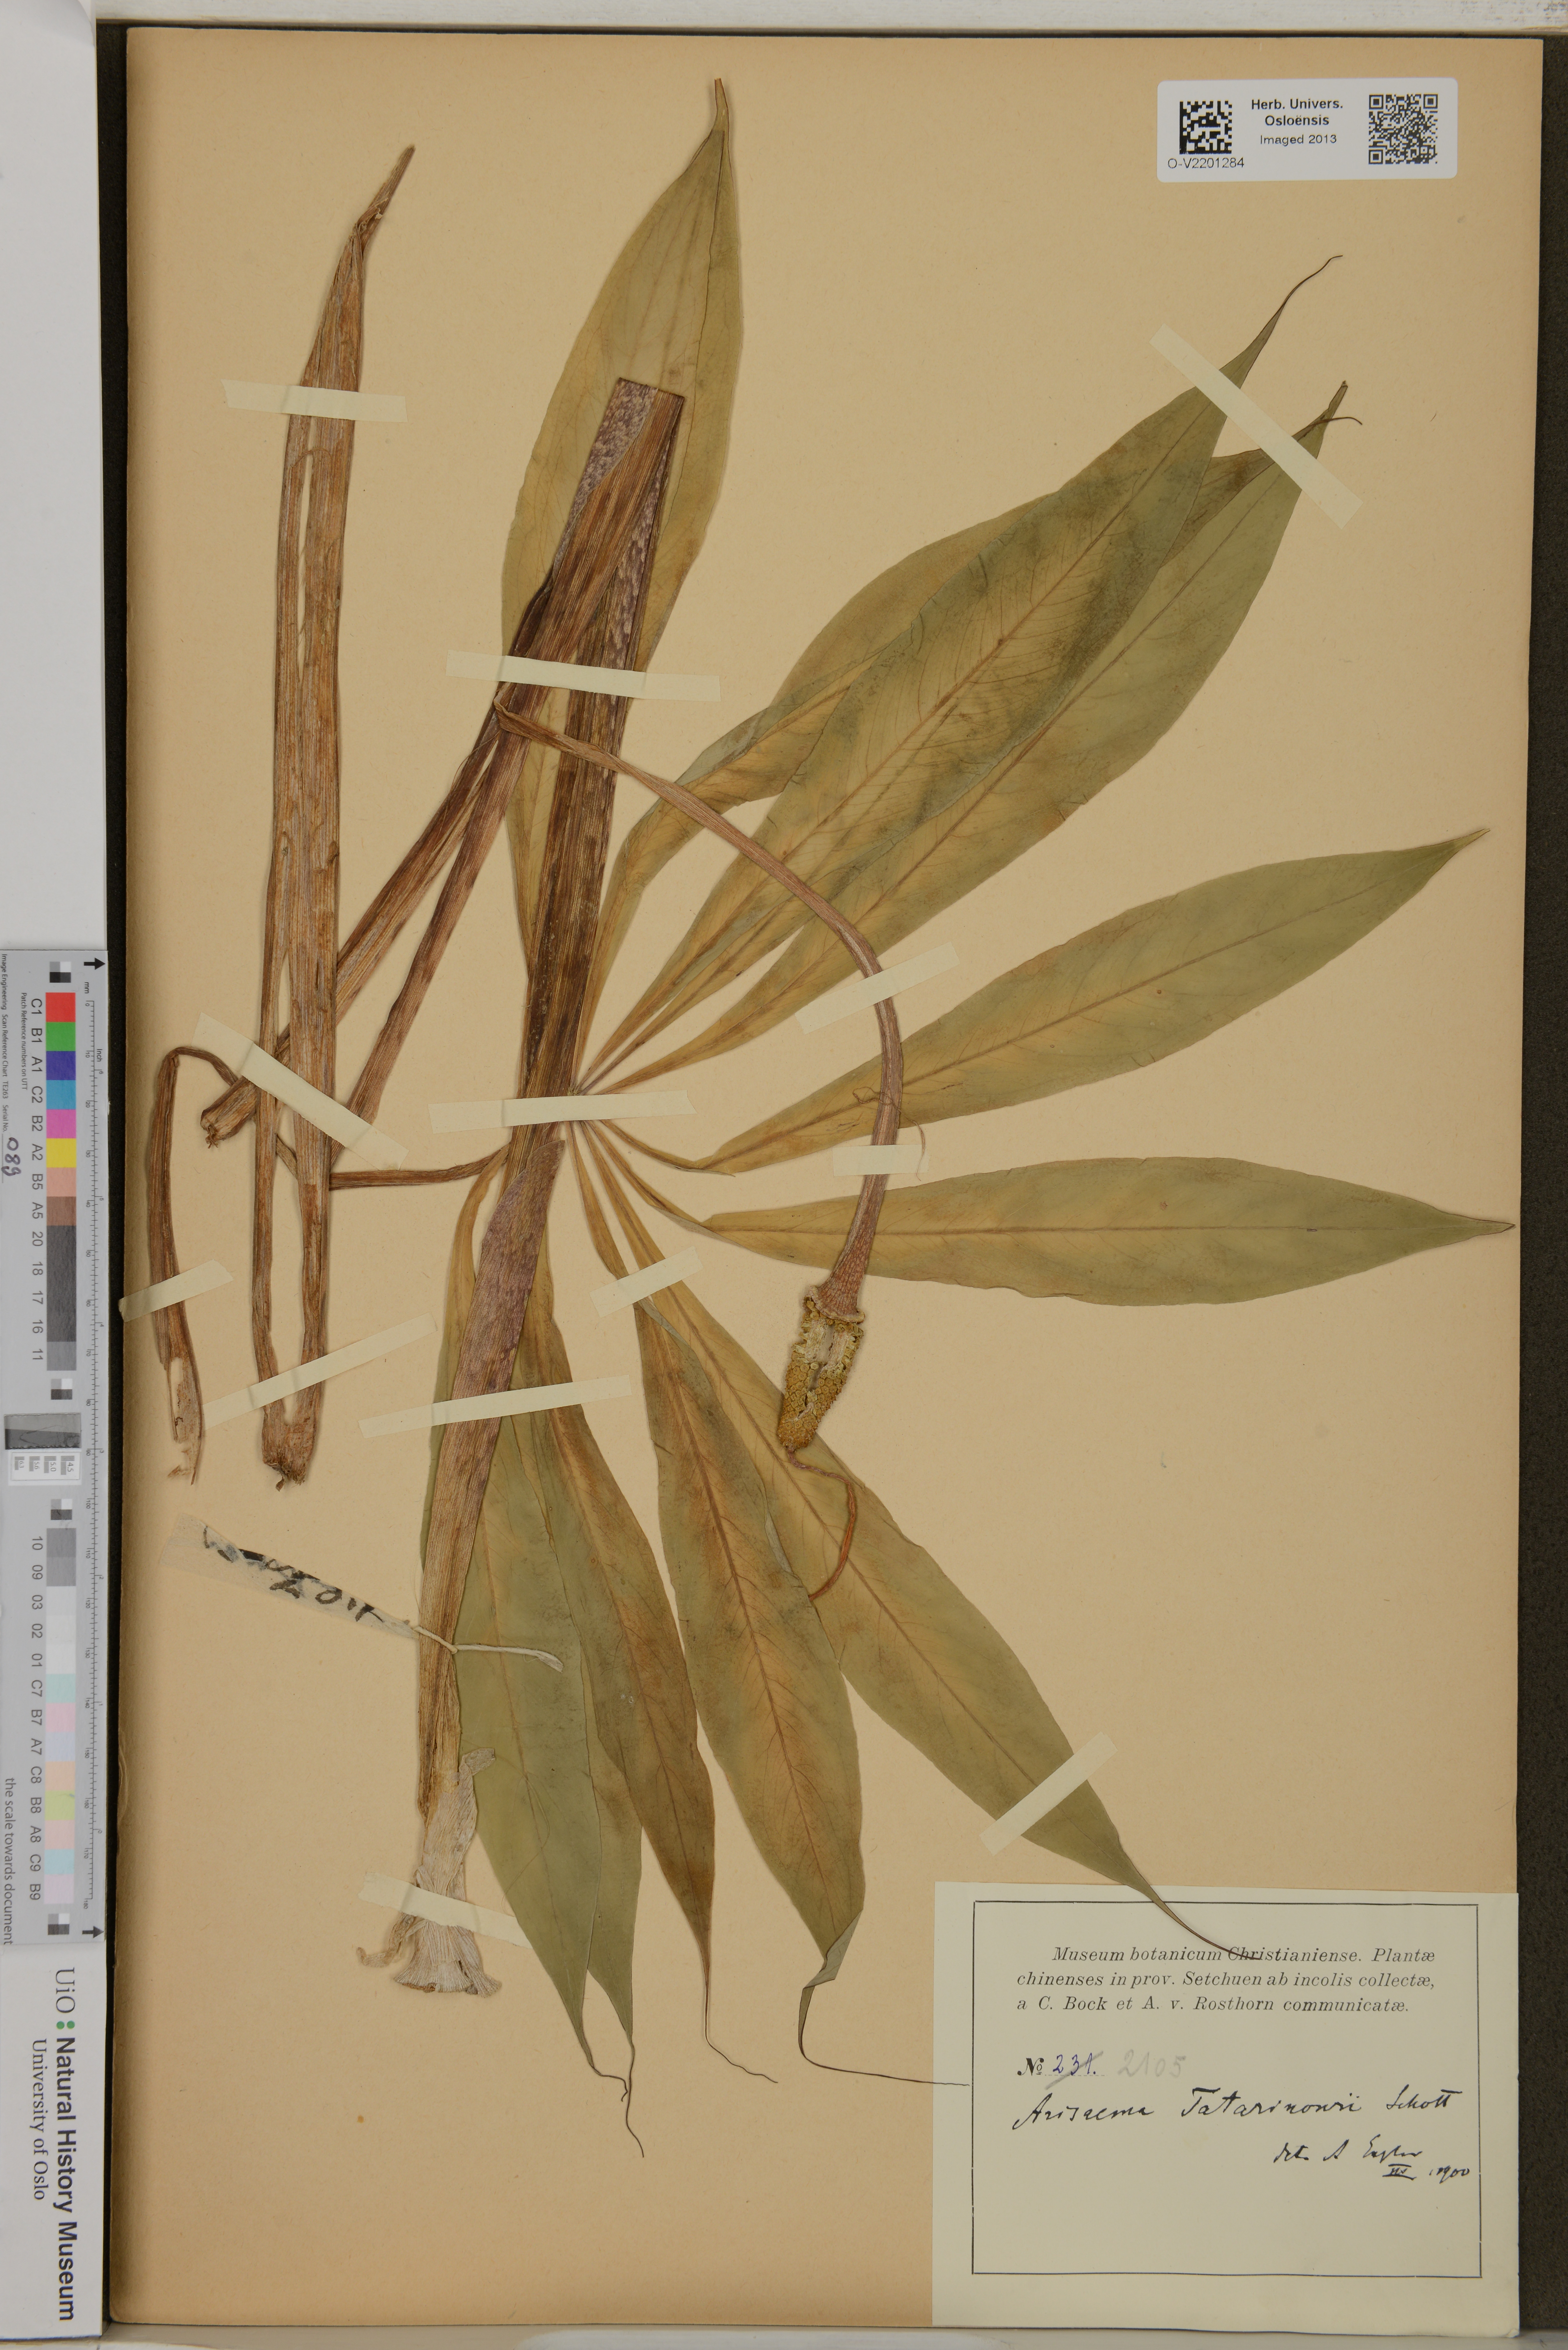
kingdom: Plantae
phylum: Tracheophyta
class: Liliopsida
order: Alismatales
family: Araceae
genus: Arisaema
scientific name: Arisaema consanguineum
